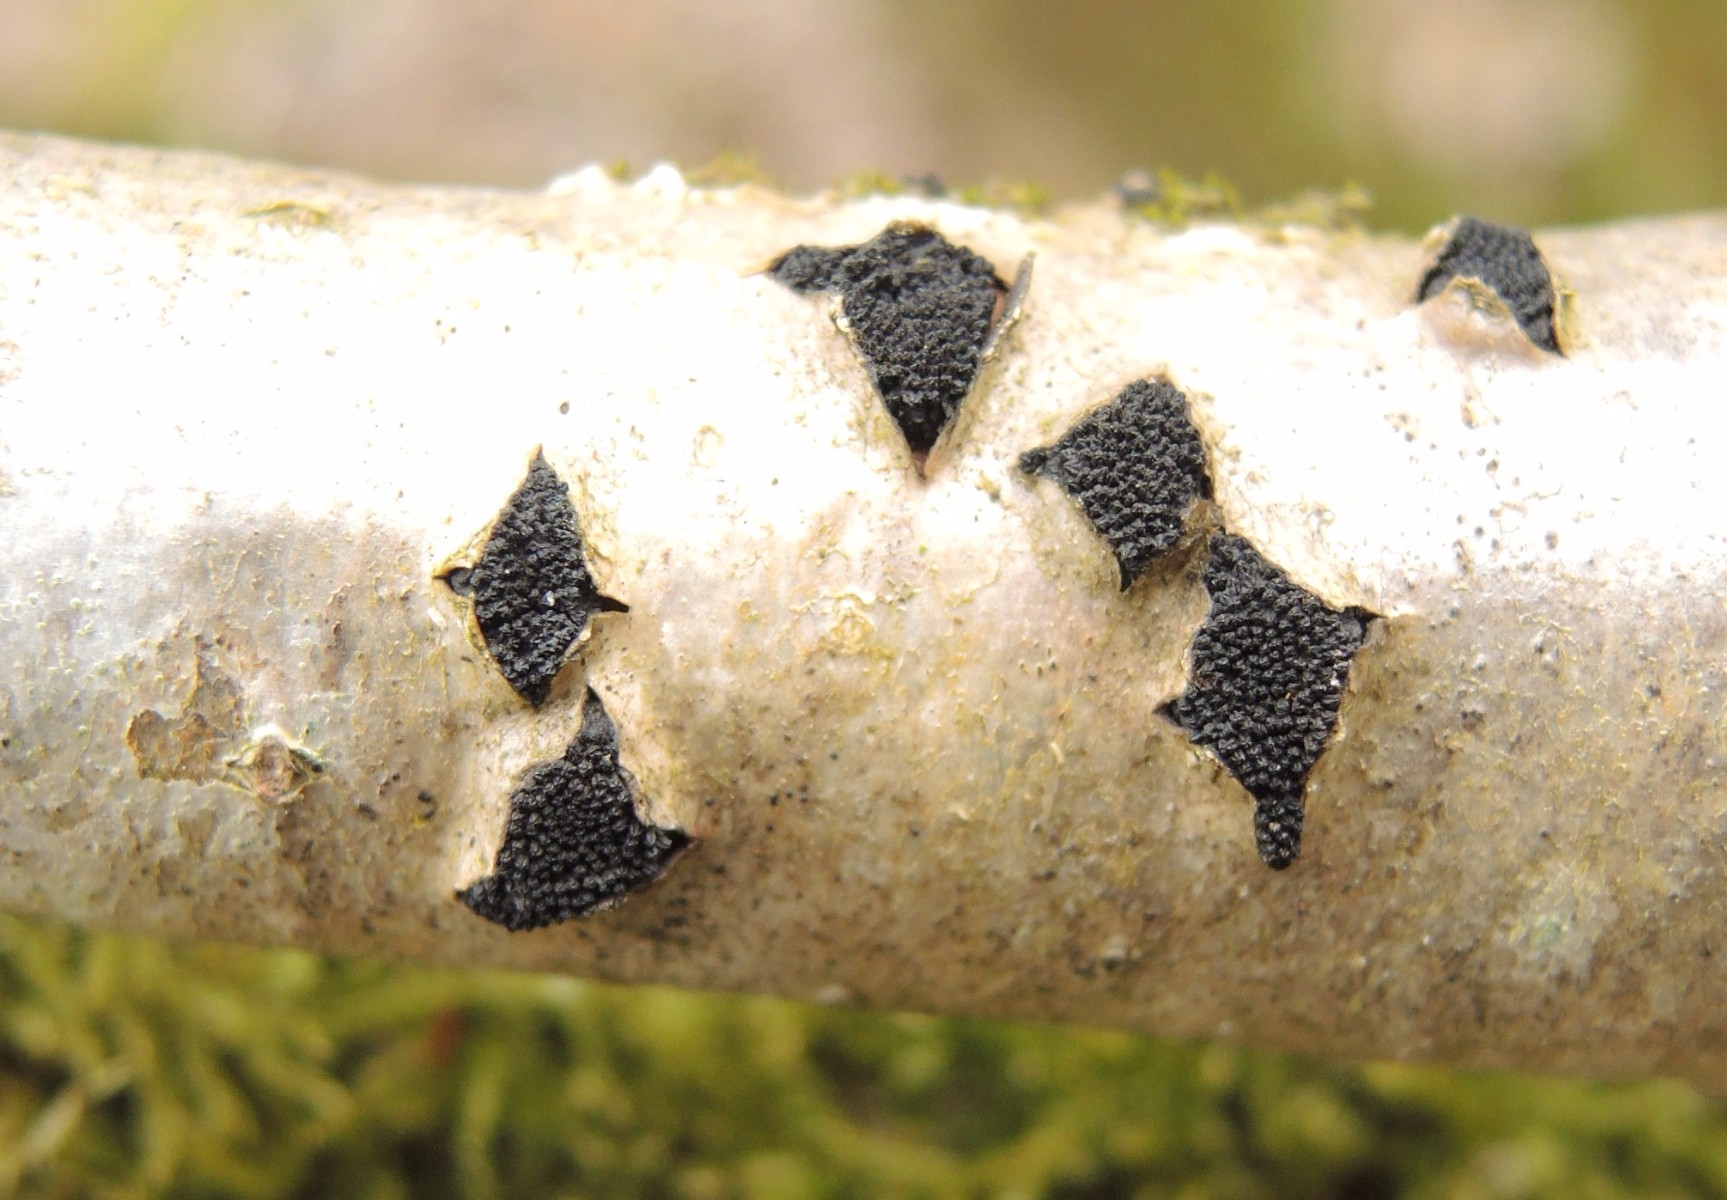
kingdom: Fungi
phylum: Ascomycota
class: Sordariomycetes
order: Xylariales
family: Diatrypaceae
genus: Eutypella
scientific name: Eutypella sorbi
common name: rønne-kulskorpe
